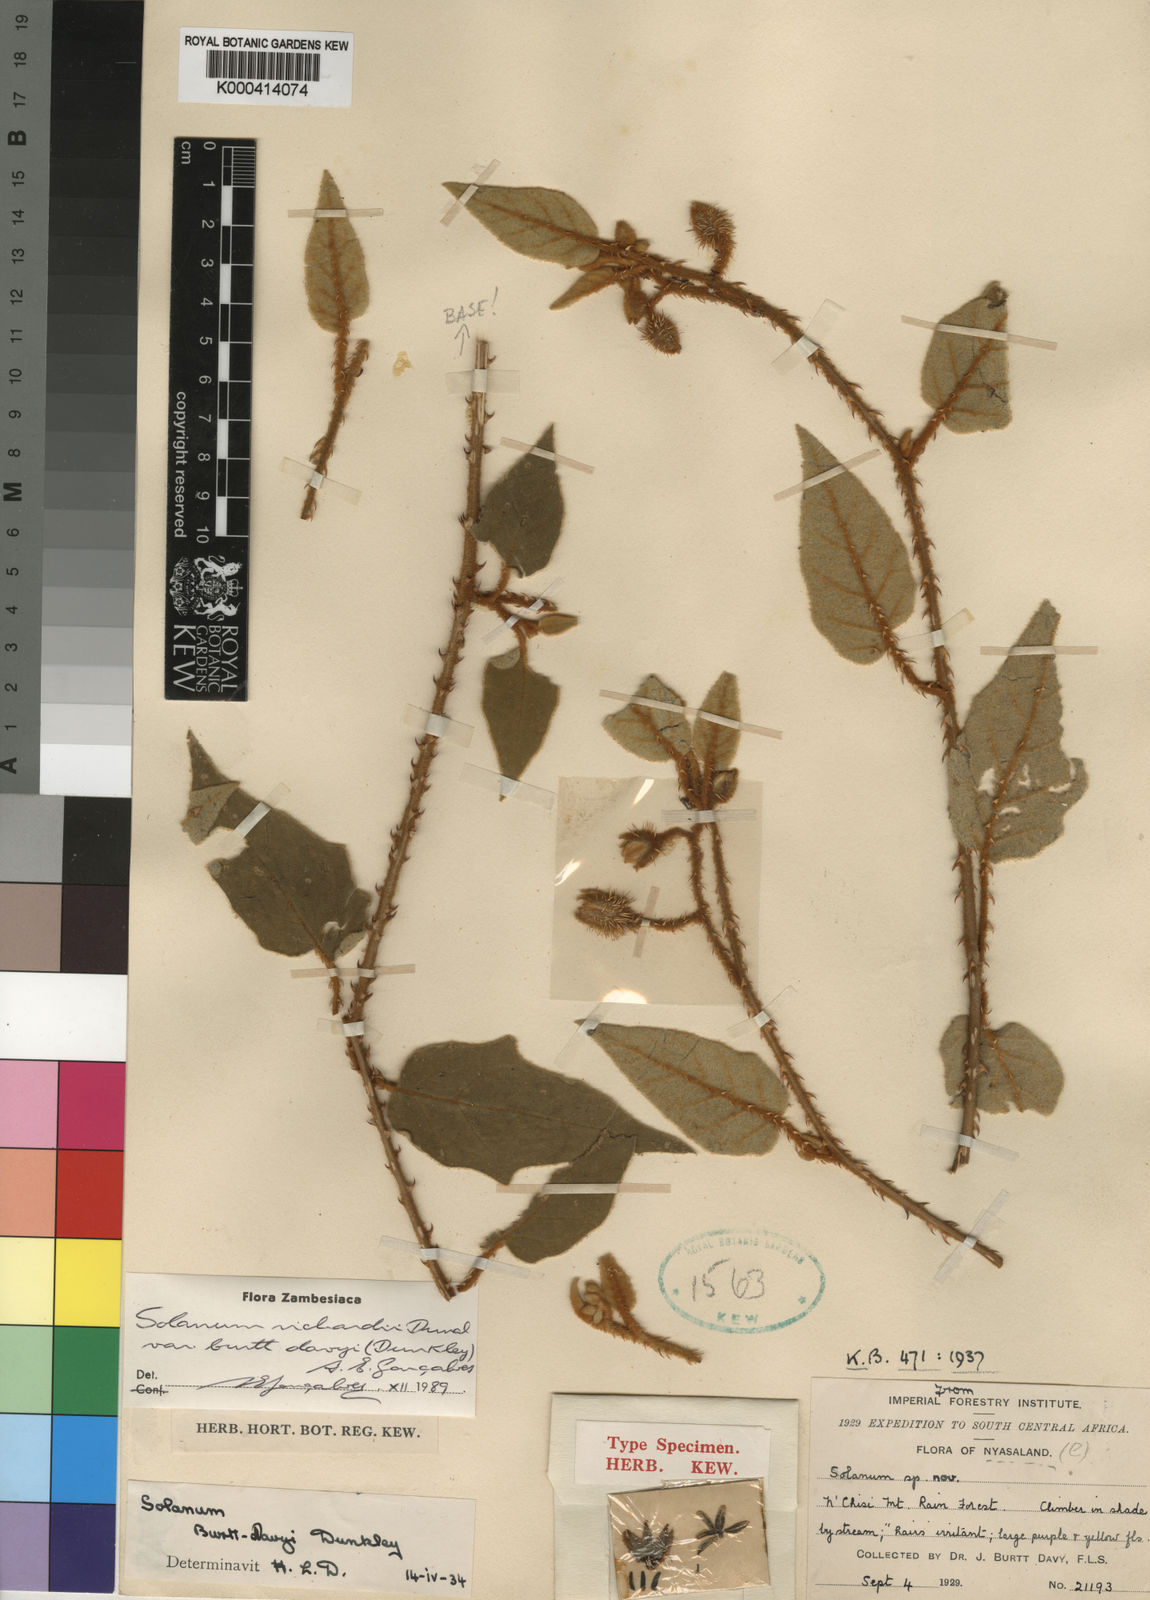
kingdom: Plantae
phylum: Tracheophyta
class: Magnoliopsida
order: Solanales
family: Solanaceae
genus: Solanum
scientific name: Solanum richardii
